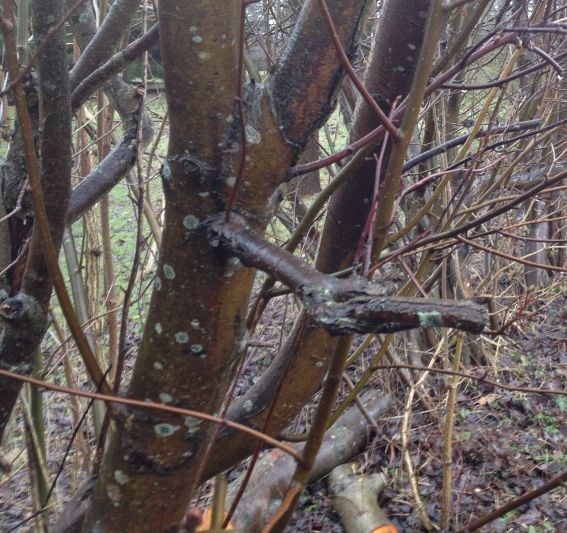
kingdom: Fungi
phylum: Ascomycota
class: Lecanoromycetes
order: Lecanorales
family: Lecanoraceae
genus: Lecidella
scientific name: Lecidella elaeochroma
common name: grågrøn skivelav
